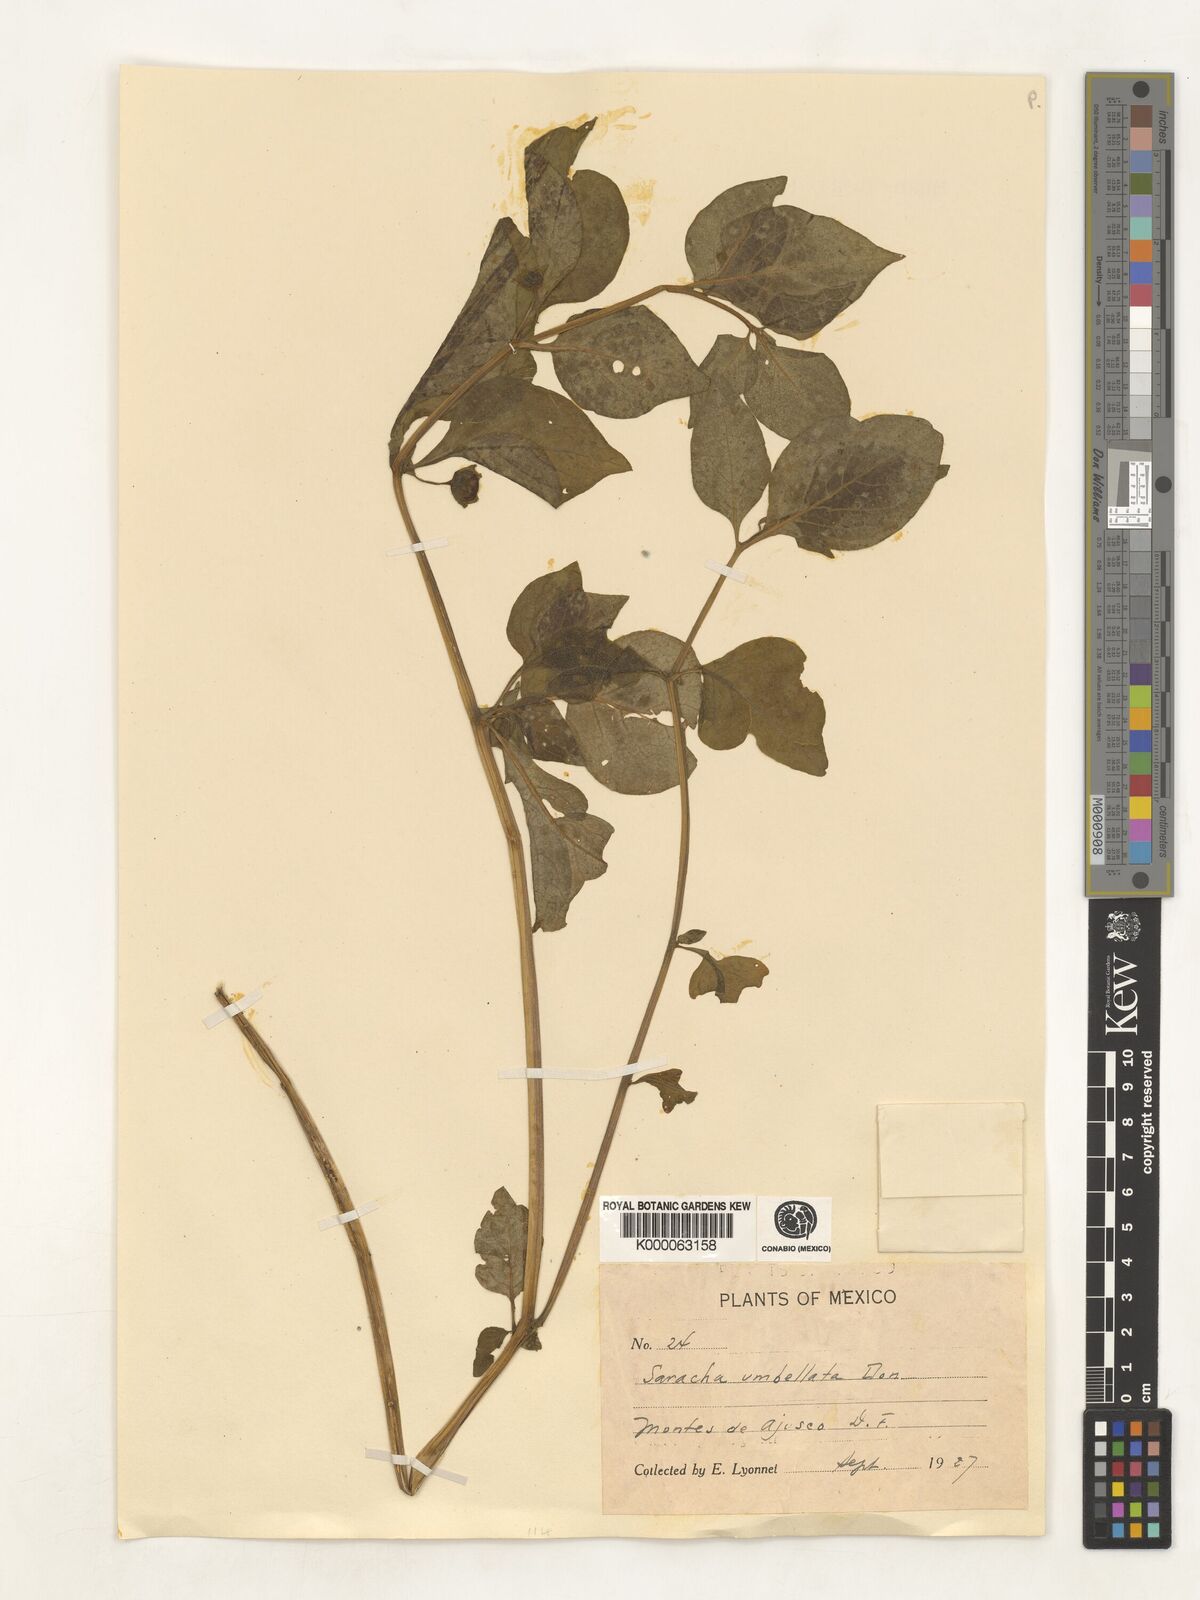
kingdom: Plantae
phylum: Tracheophyta
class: Magnoliopsida
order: Solanales
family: Solanaceae
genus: Saracha
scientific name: Saracha
